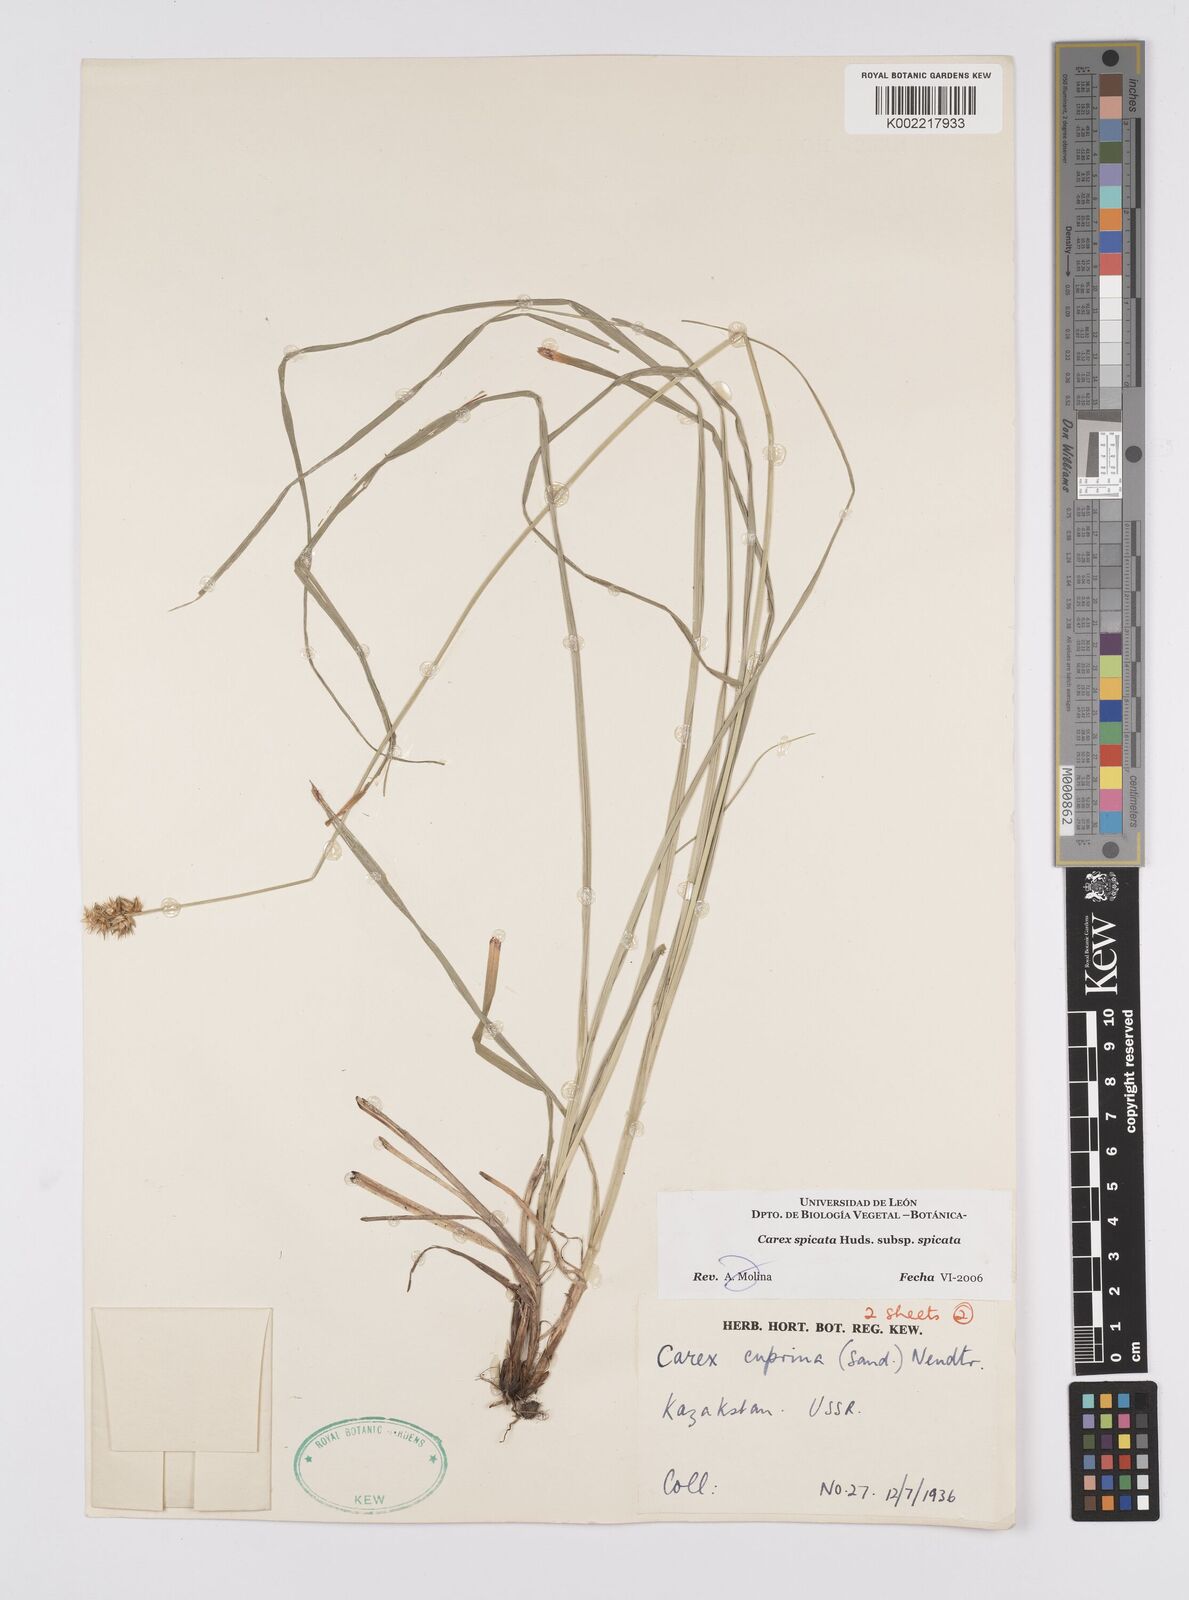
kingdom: Plantae
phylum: Tracheophyta
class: Liliopsida
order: Poales
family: Cyperaceae
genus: Carex
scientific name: Carex spicata
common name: Spiked sedge
